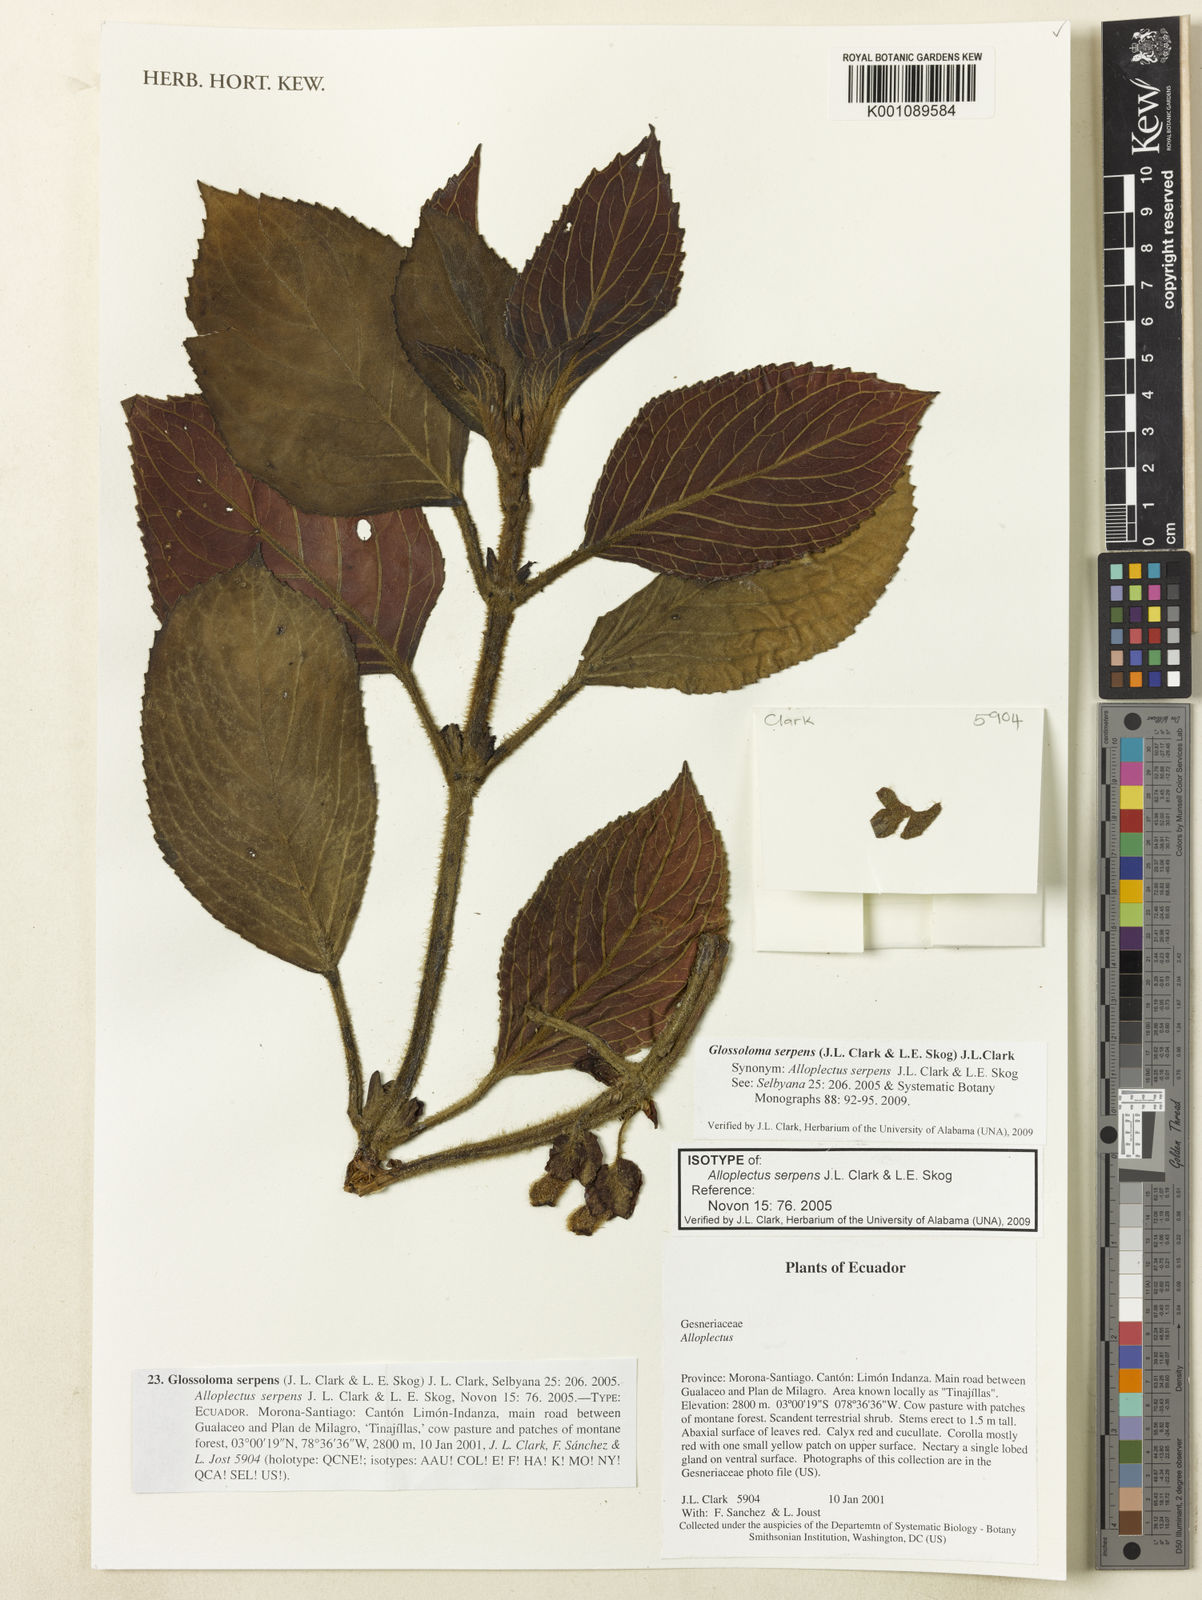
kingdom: Plantae
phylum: Tracheophyta
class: Magnoliopsida
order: Lamiales
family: Gesneriaceae
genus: Glossoloma
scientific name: Glossoloma serpens
